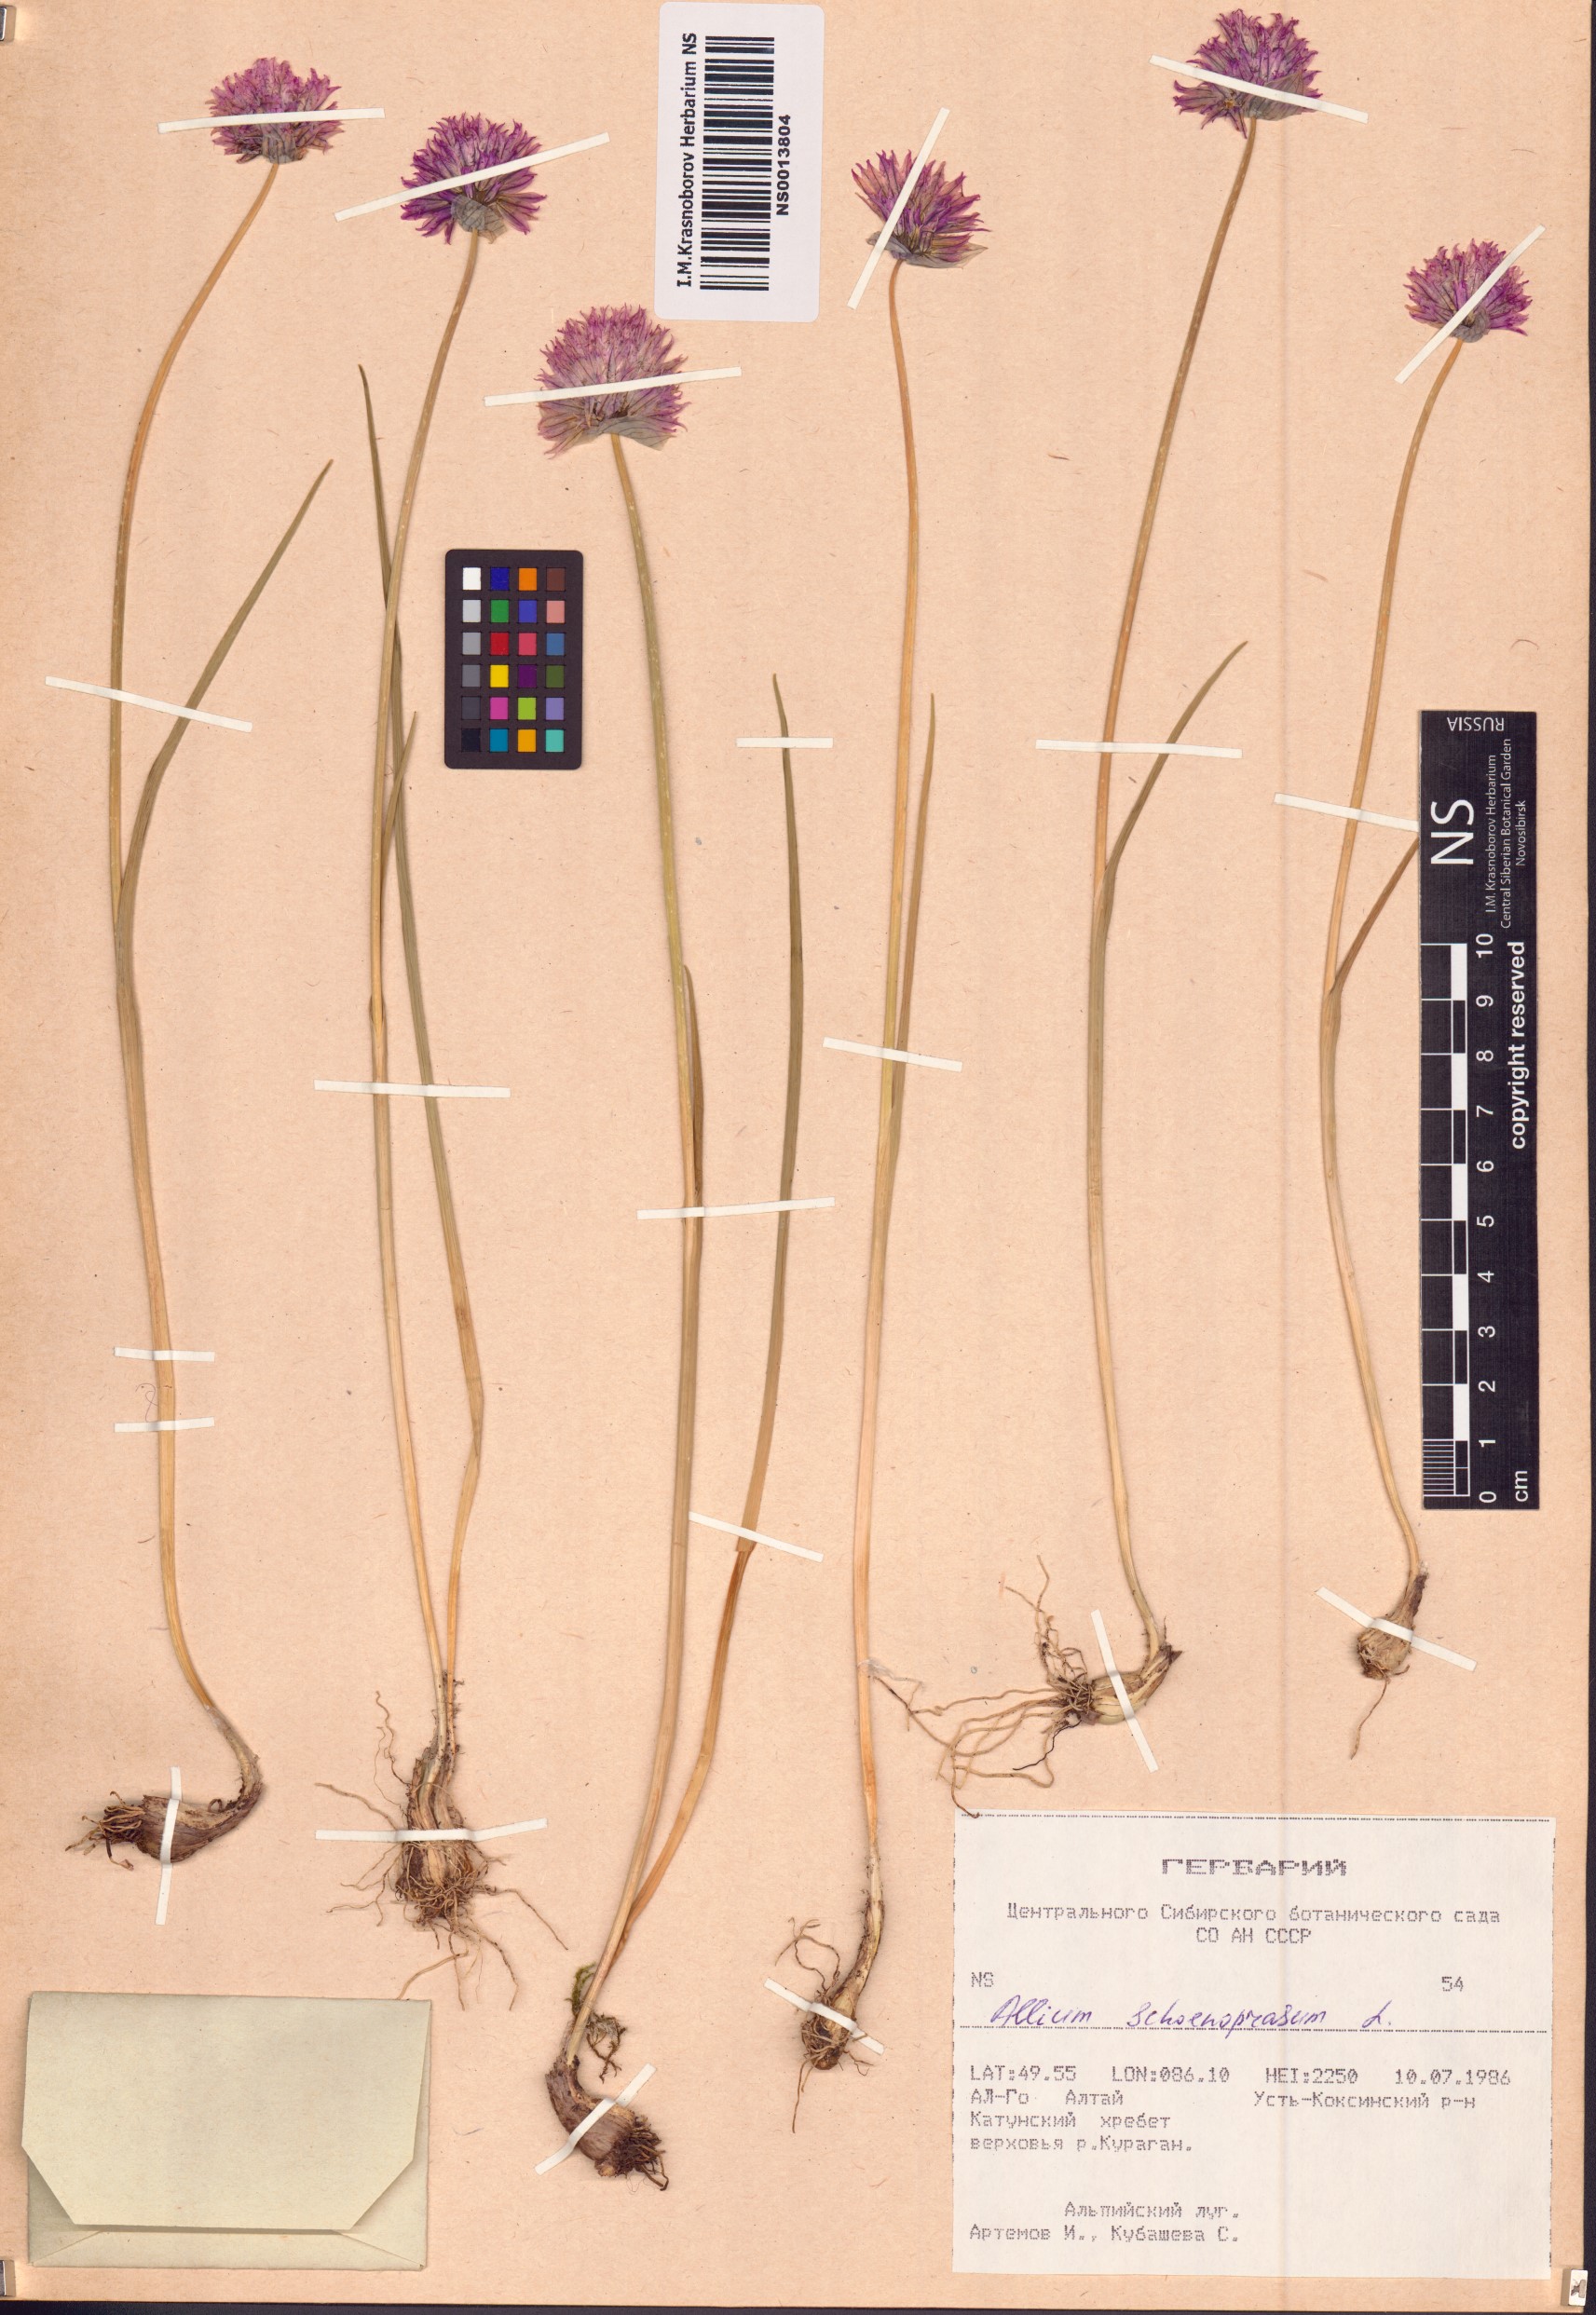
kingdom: Plantae
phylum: Tracheophyta
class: Liliopsida
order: Asparagales
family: Amaryllidaceae
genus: Allium
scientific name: Allium schoenoprasum
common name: Chives
